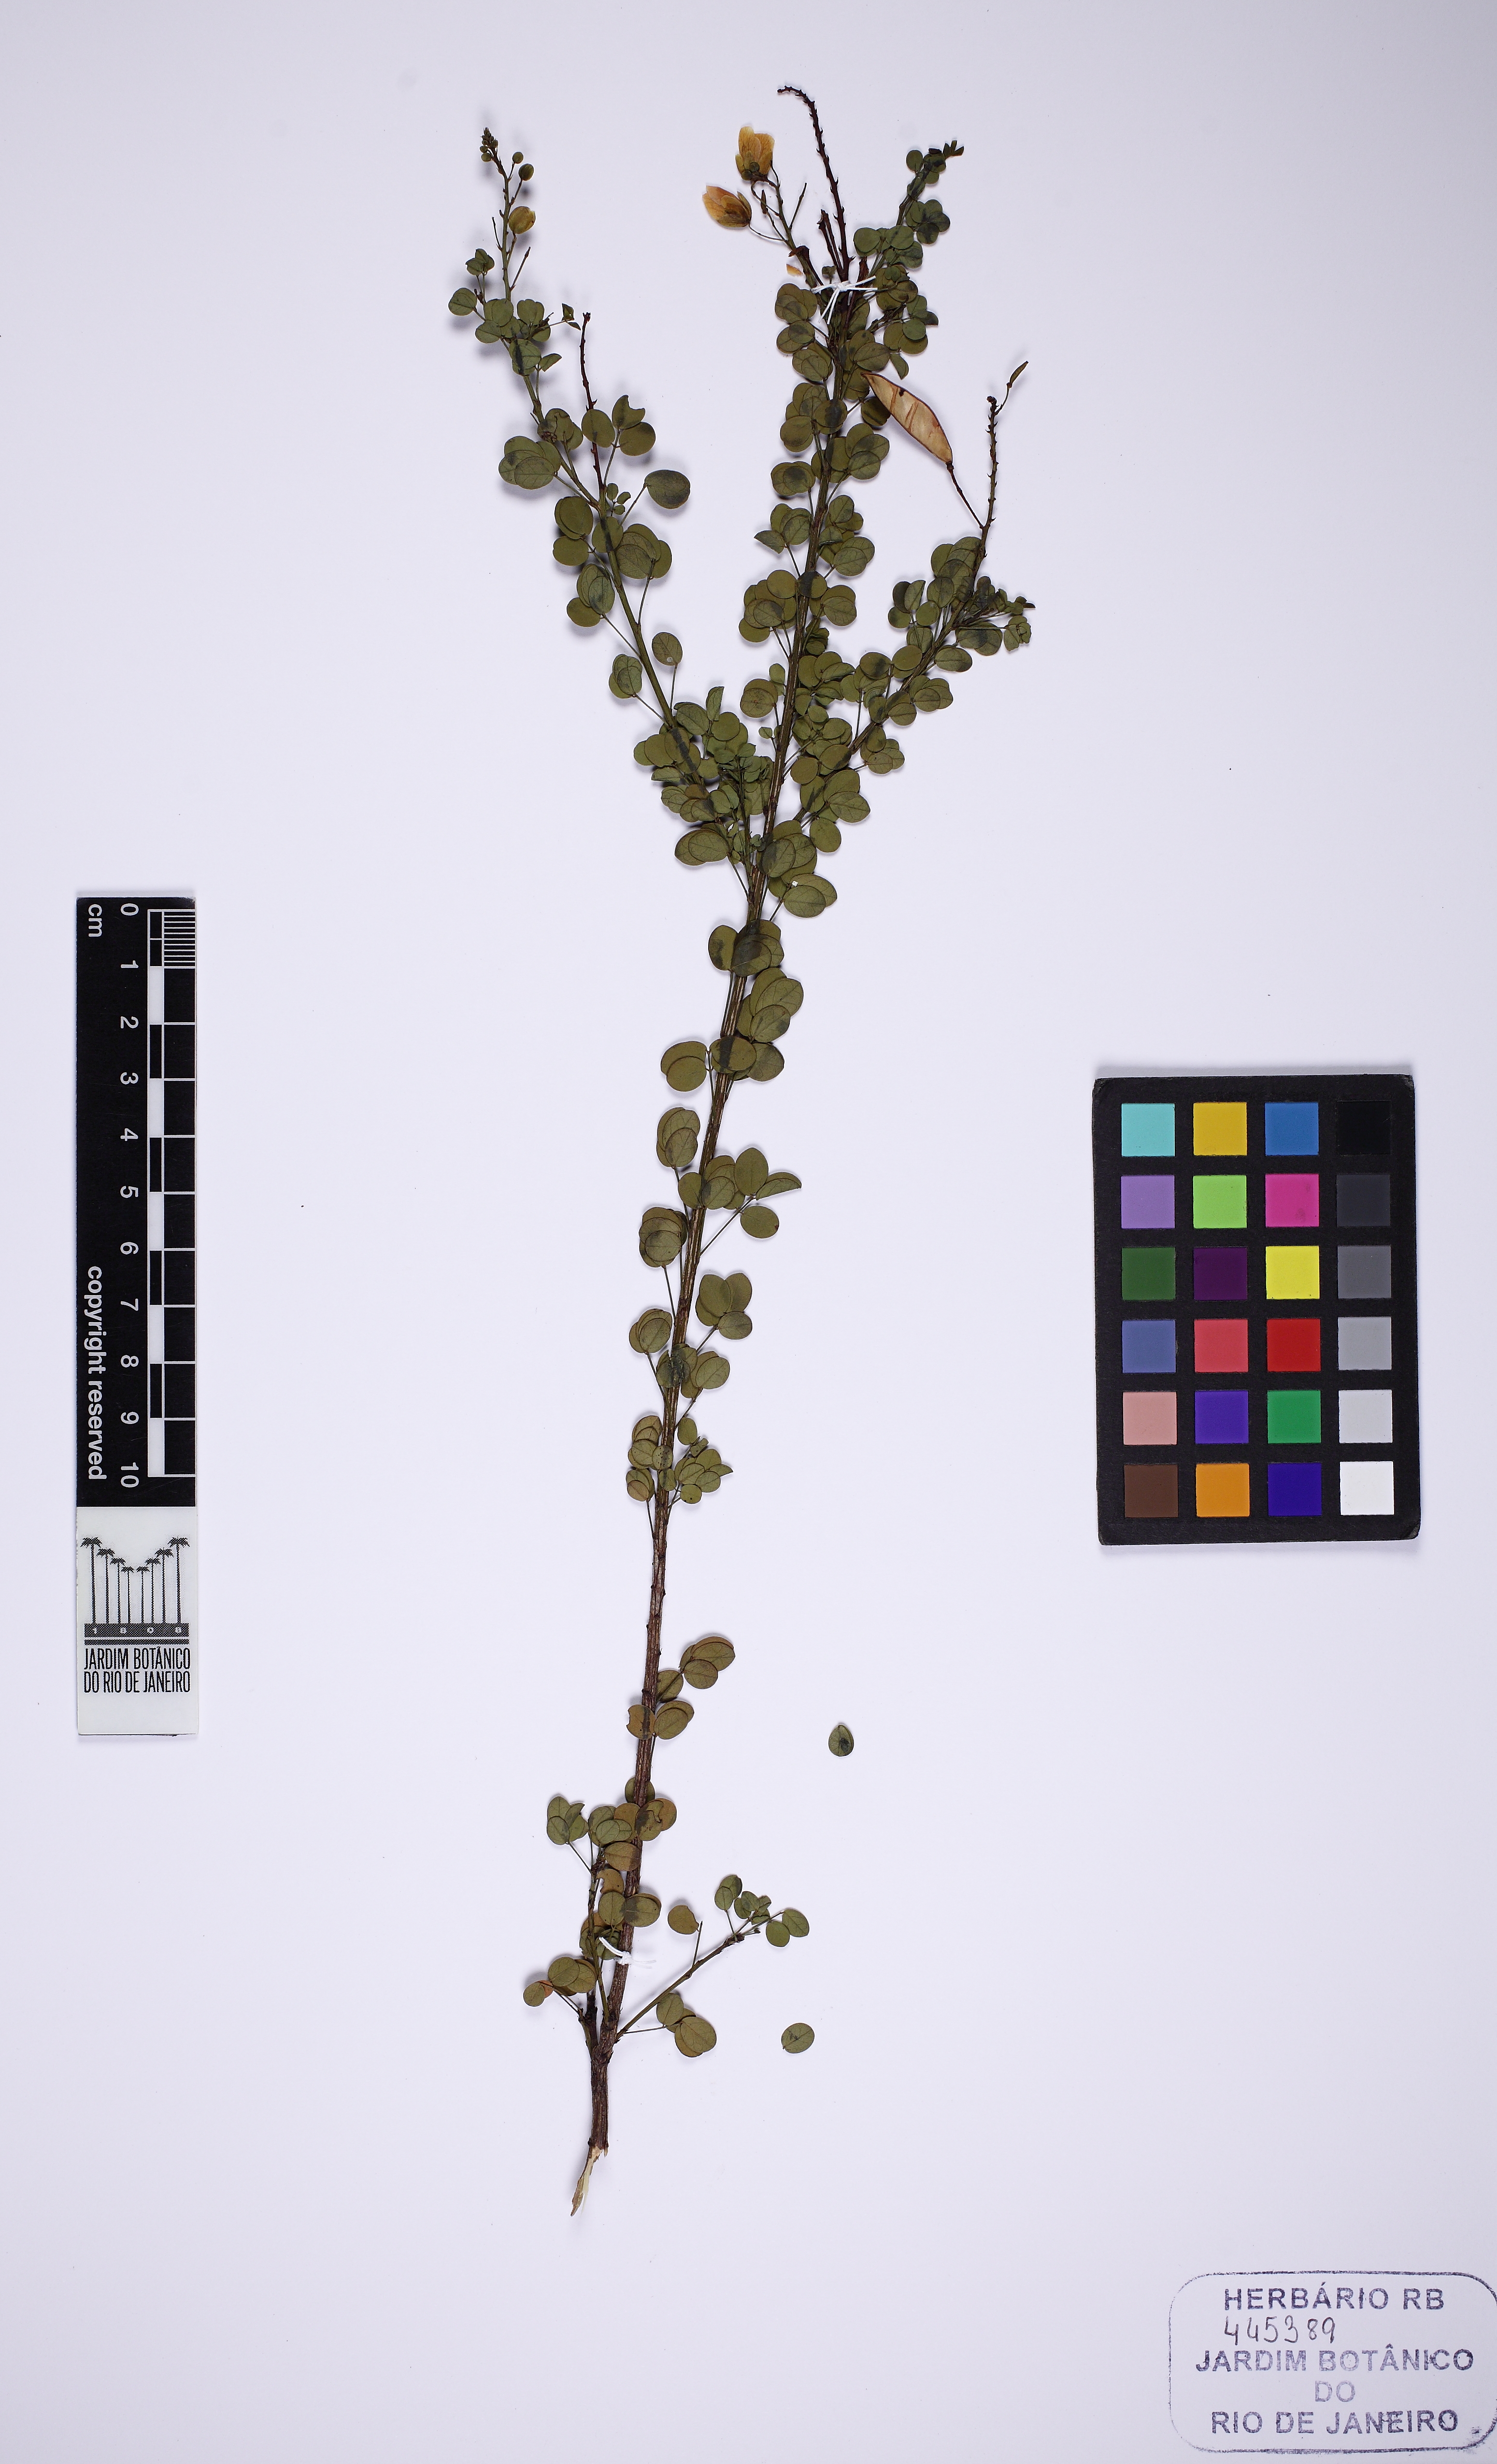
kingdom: Plantae
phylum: Tracheophyta
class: Magnoliopsida
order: Fabales
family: Fabaceae
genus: Chamaecrista
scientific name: Chamaecrista
